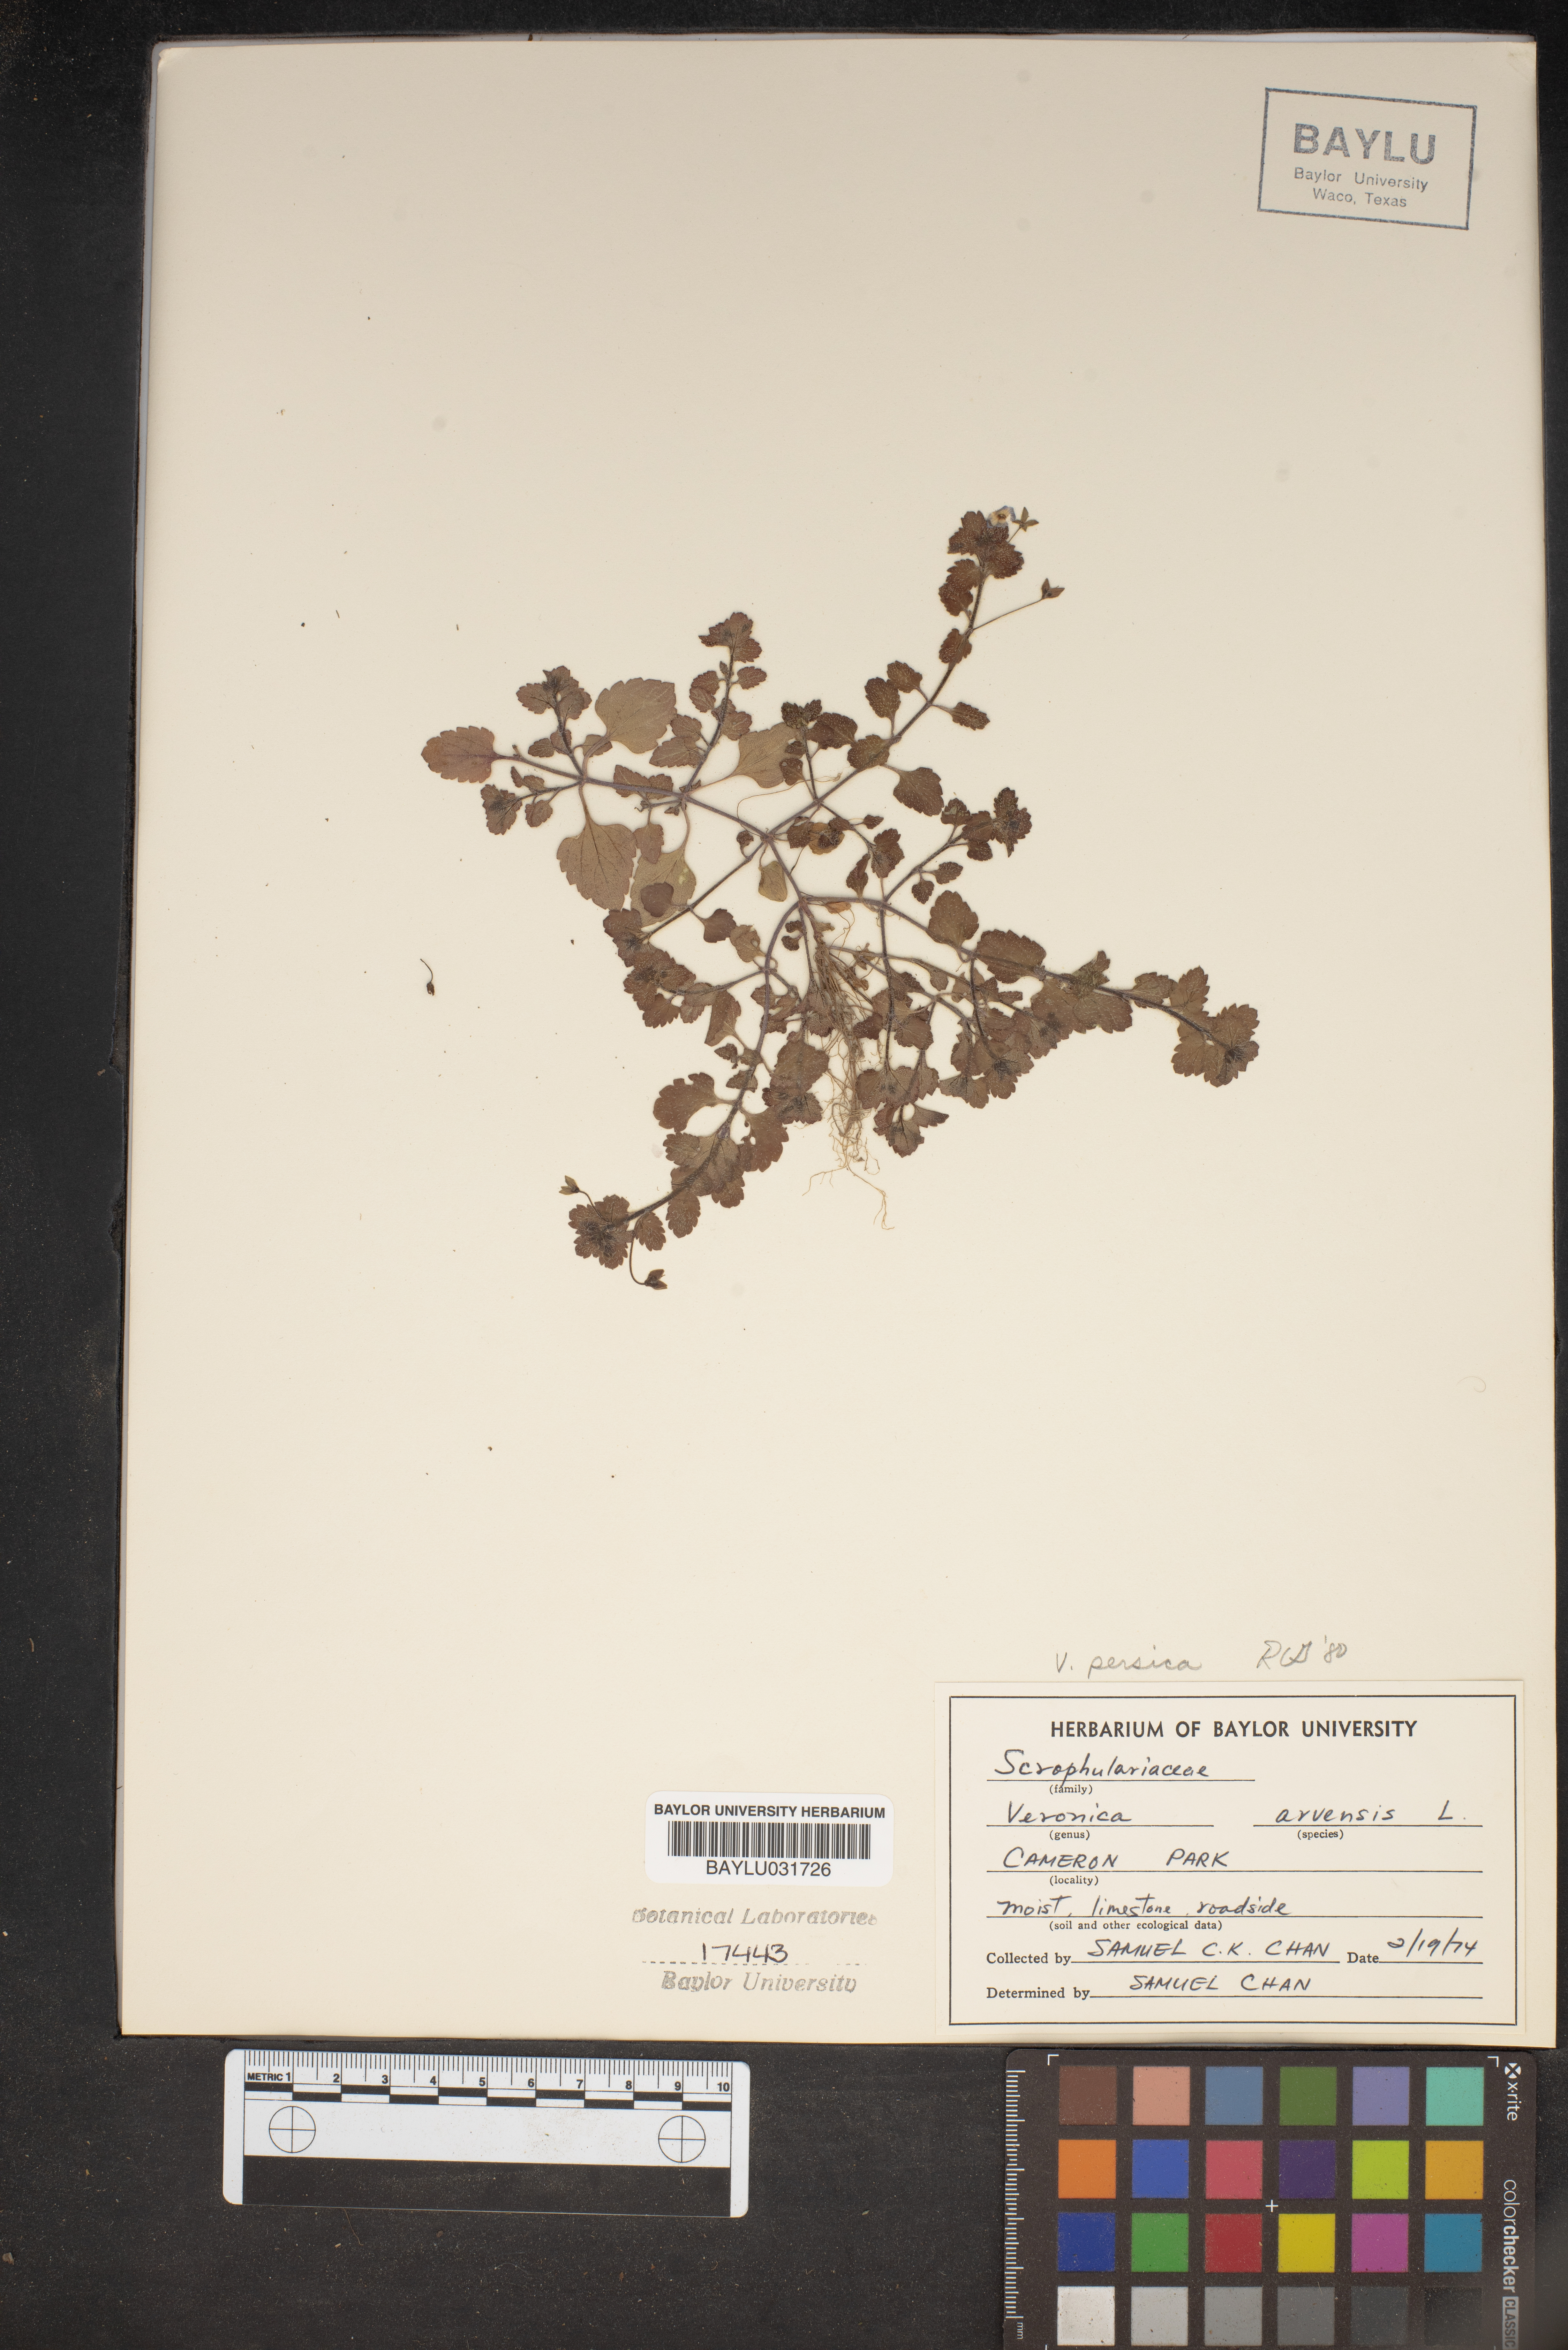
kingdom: Plantae
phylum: Tracheophyta
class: Magnoliopsida
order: Lamiales
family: Plantaginaceae
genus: Veronica
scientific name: Veronica arvensis
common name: Corn speedwell
